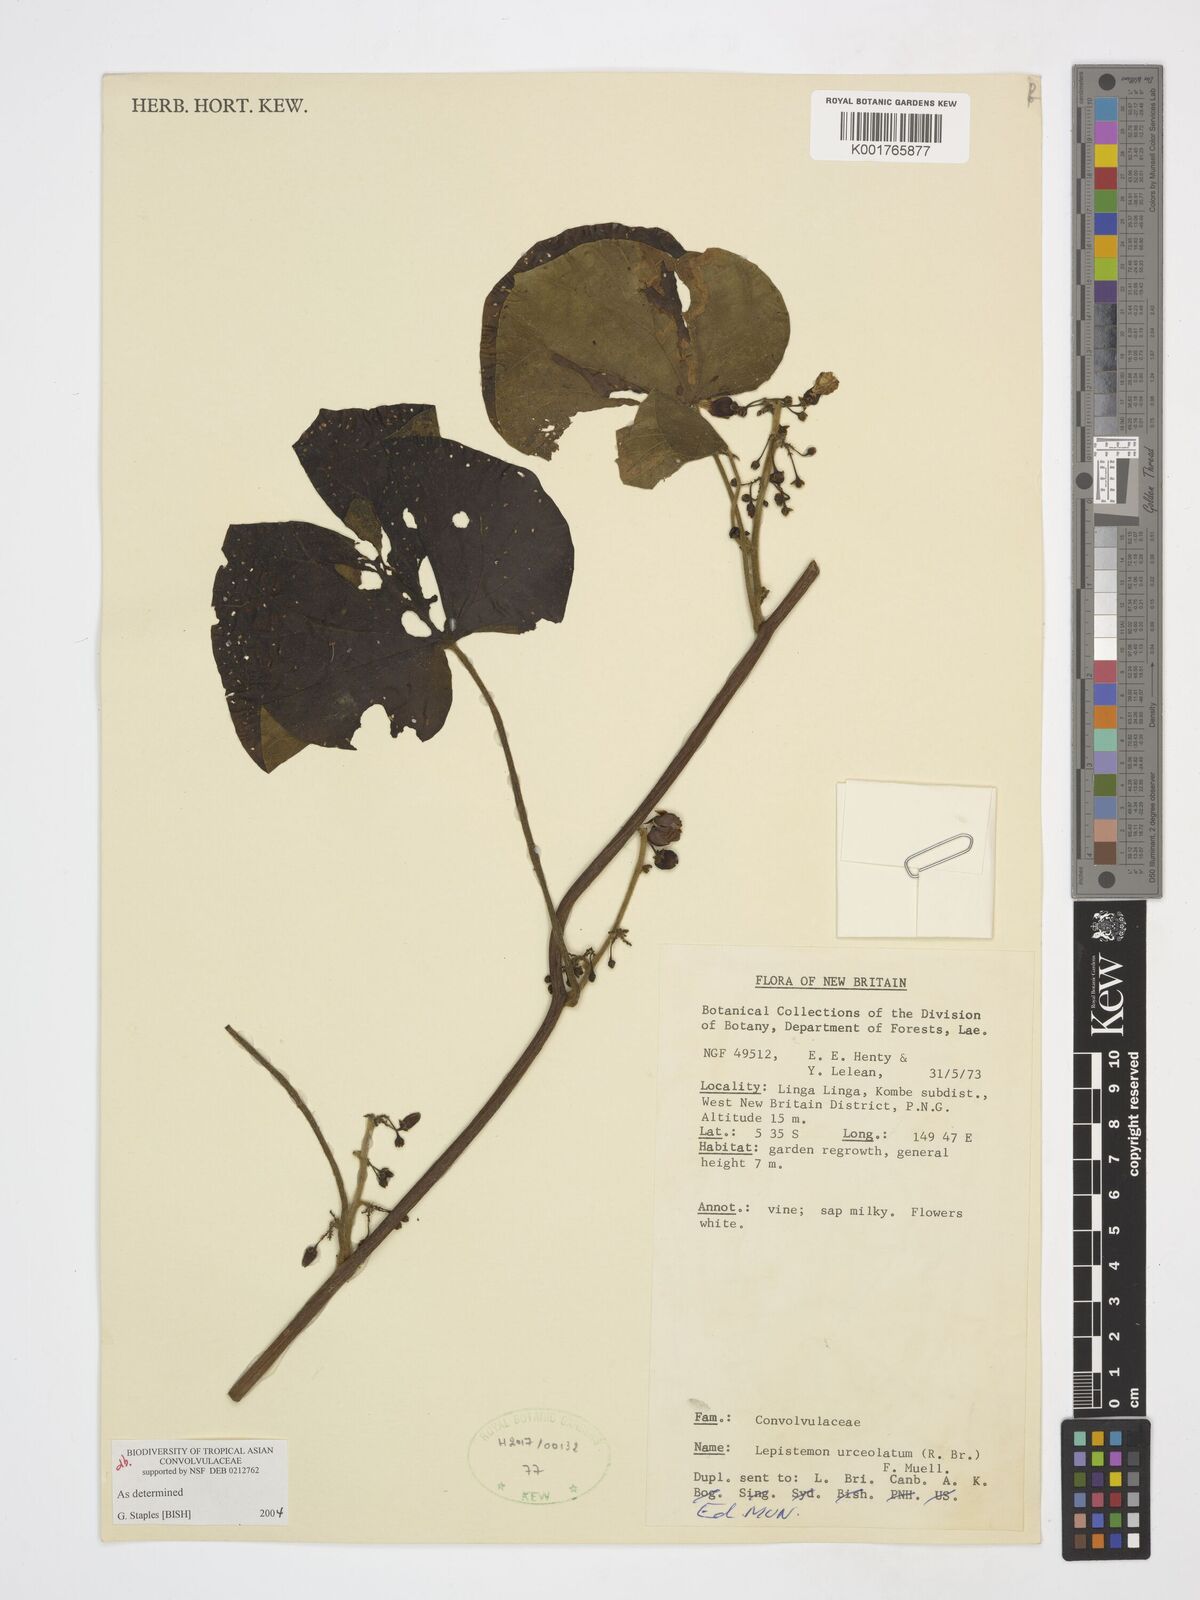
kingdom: Plantae
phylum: Tracheophyta
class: Magnoliopsida
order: Solanales
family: Convolvulaceae
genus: Lepistemon
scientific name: Lepistemon urceolatus
